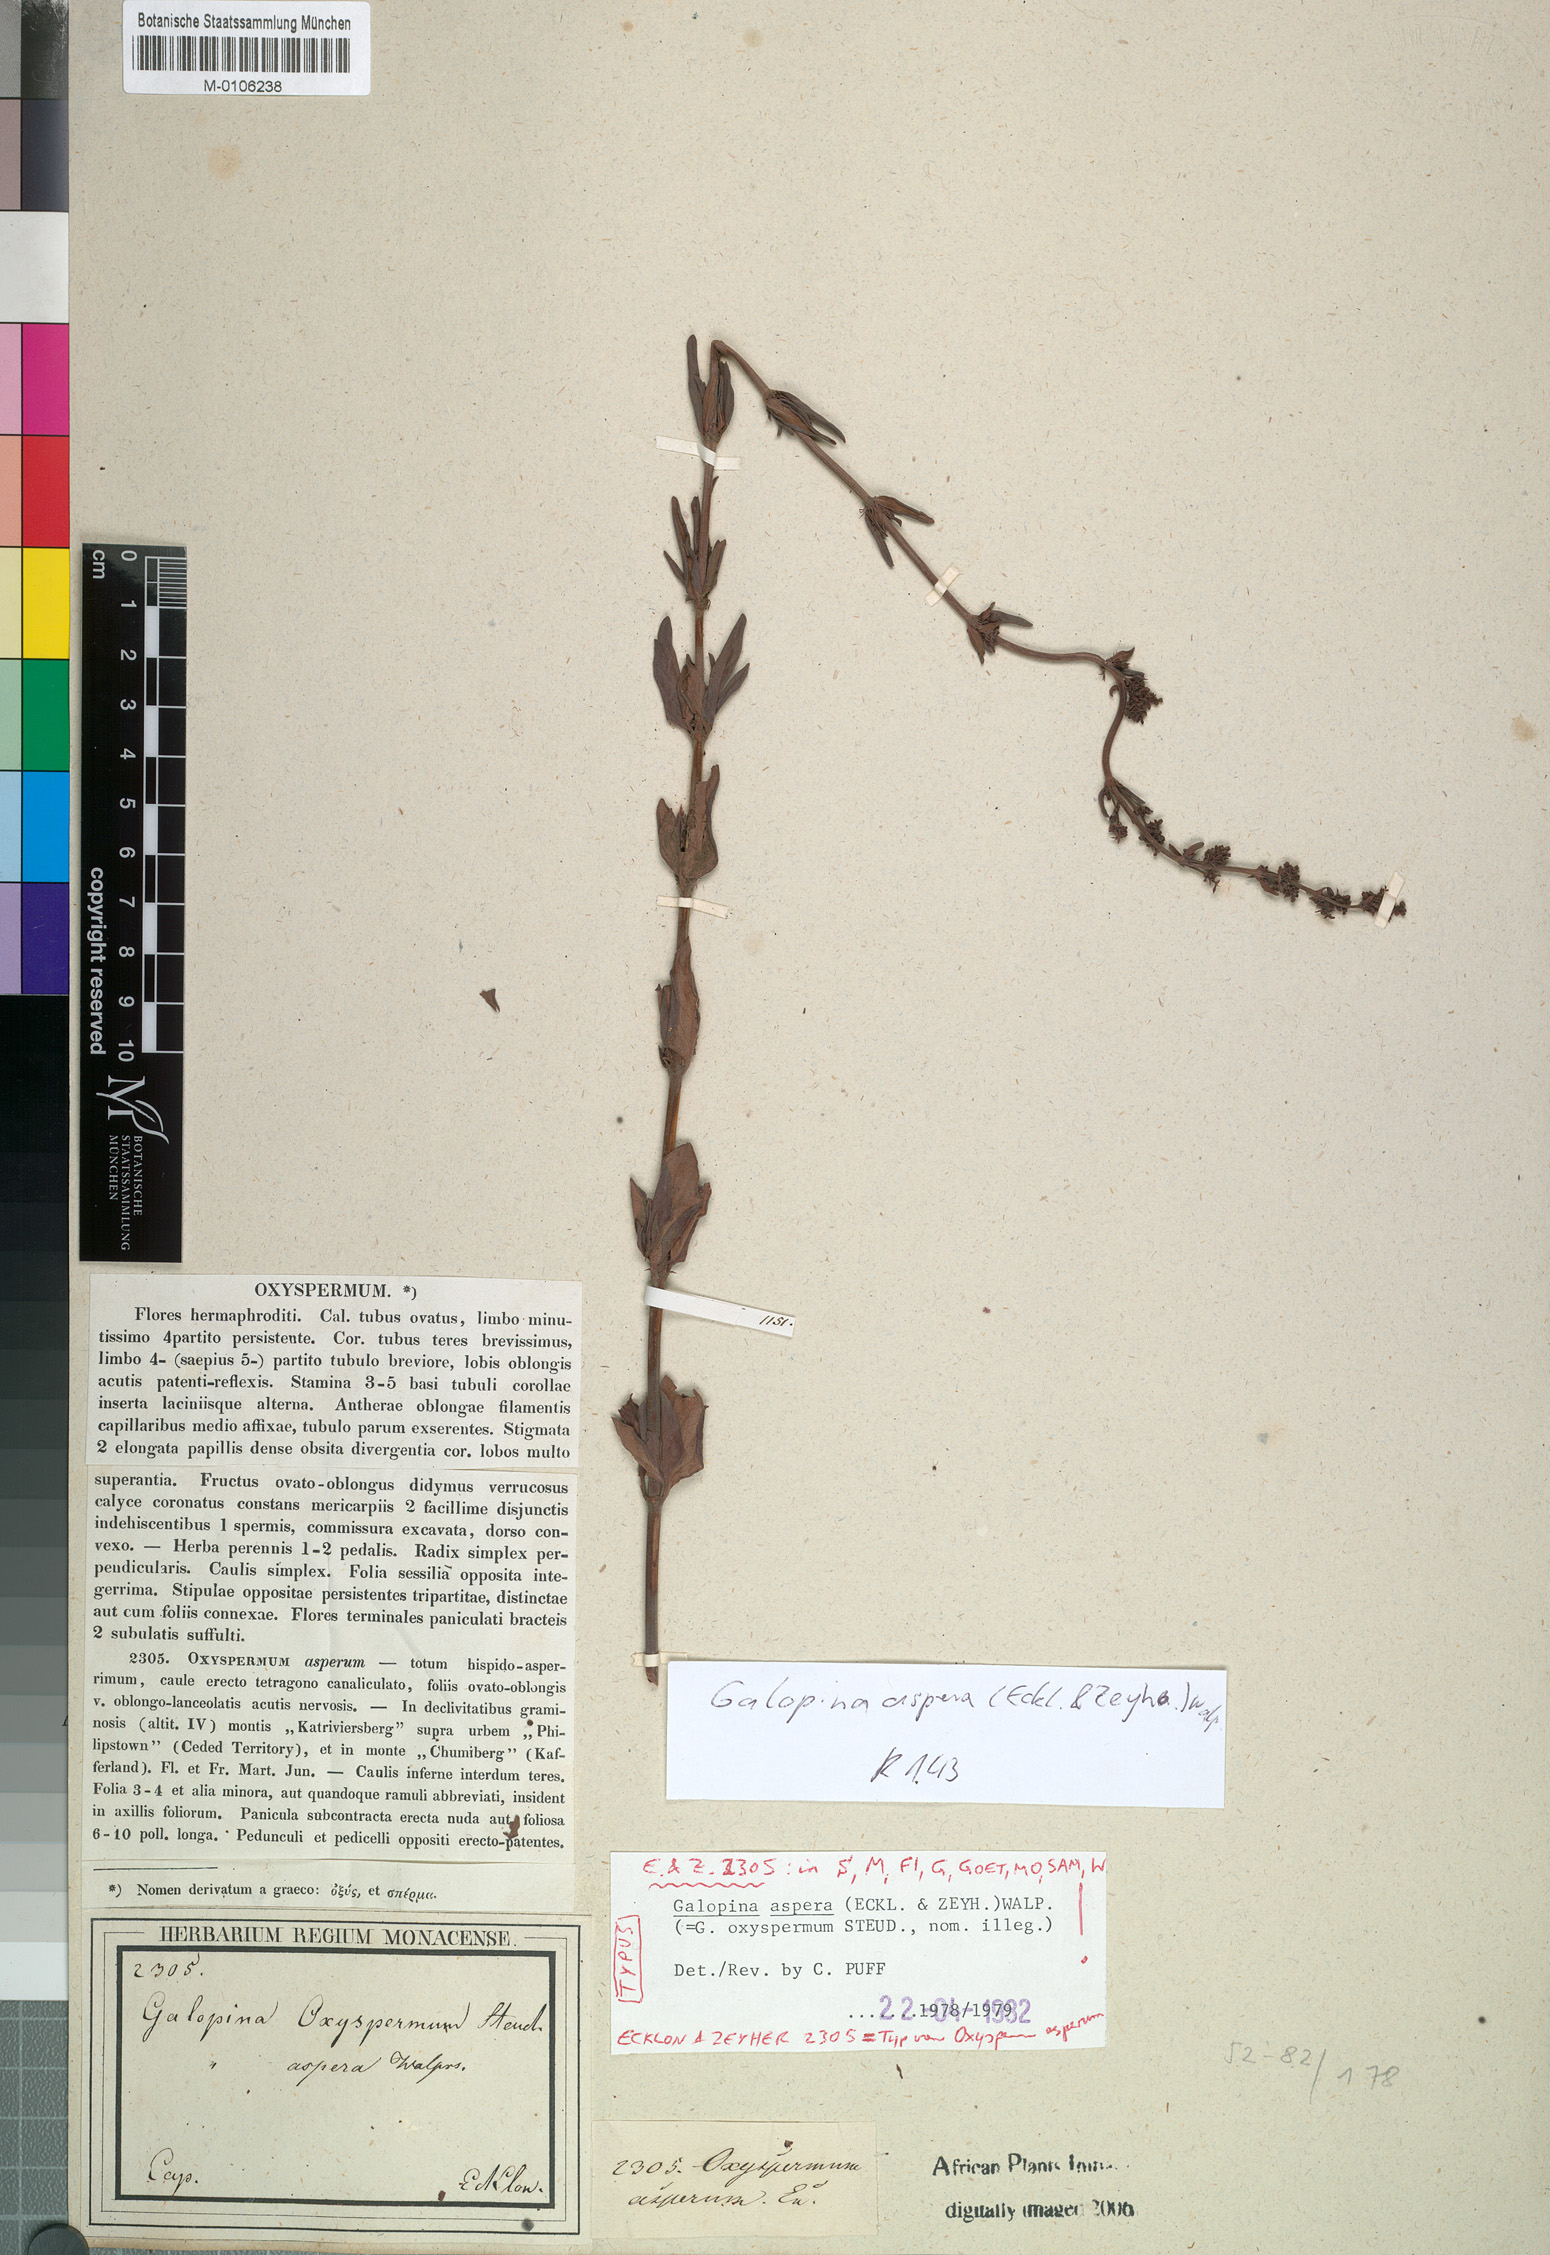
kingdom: Plantae
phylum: Tracheophyta
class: Magnoliopsida
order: Gentianales
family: Rubiaceae
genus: Galopina
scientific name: Galopina aspera
